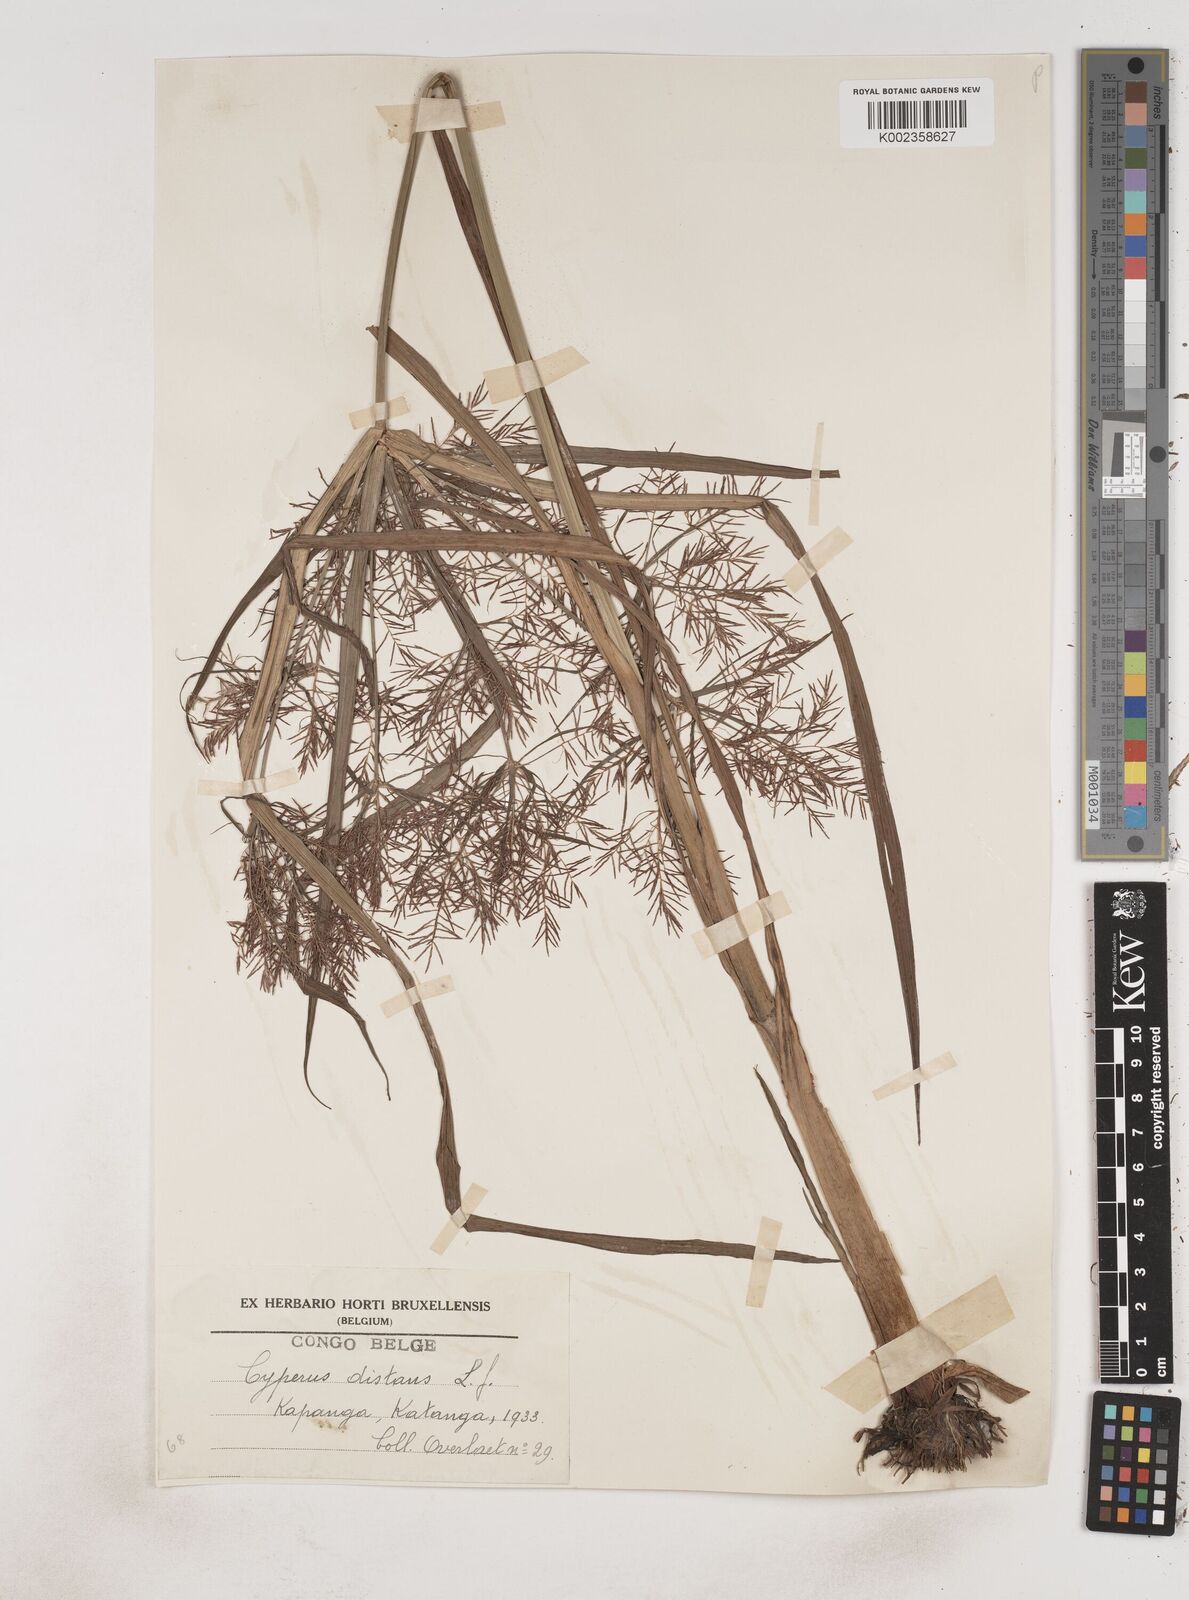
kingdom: Plantae
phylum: Tracheophyta
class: Liliopsida
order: Poales
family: Cyperaceae
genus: Cyperus
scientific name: Cyperus distans
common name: Slender cyperus
